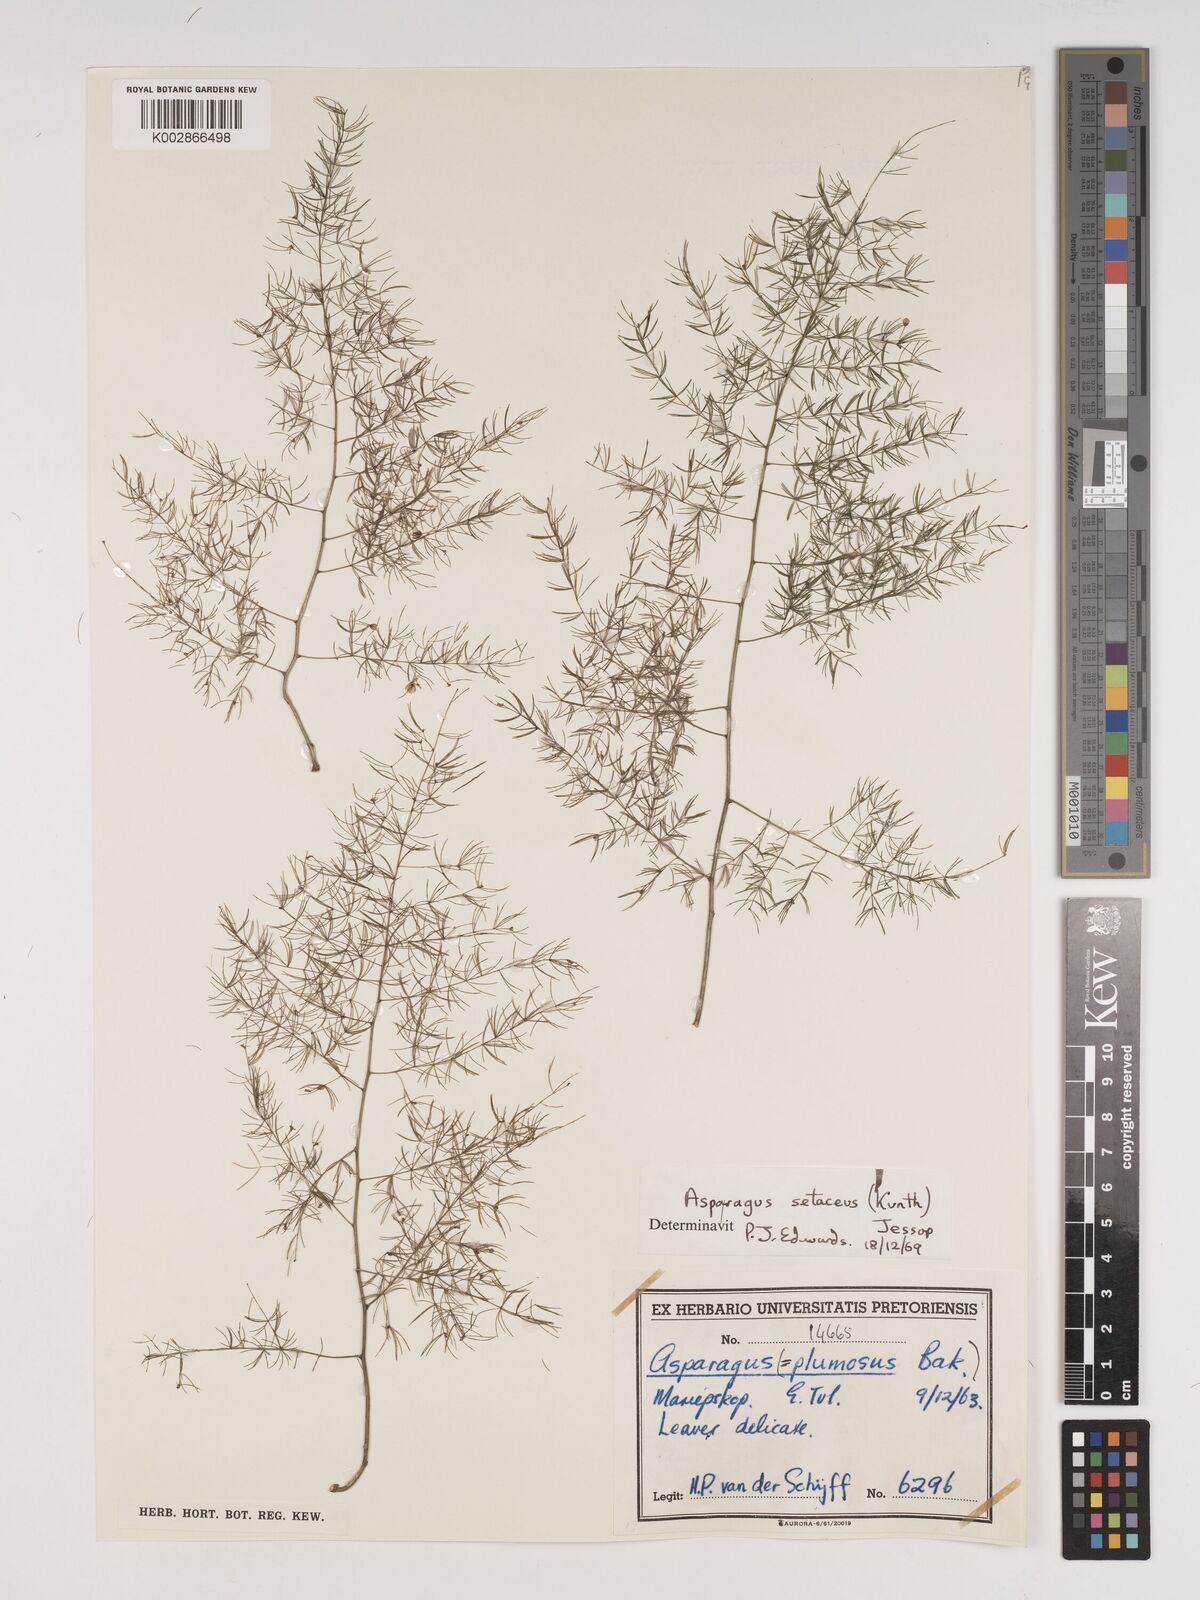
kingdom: Plantae
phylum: Tracheophyta
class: Liliopsida
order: Asparagales
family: Asparagaceae
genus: Asparagus
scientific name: Asparagus setaceus
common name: Common asparagus fern
